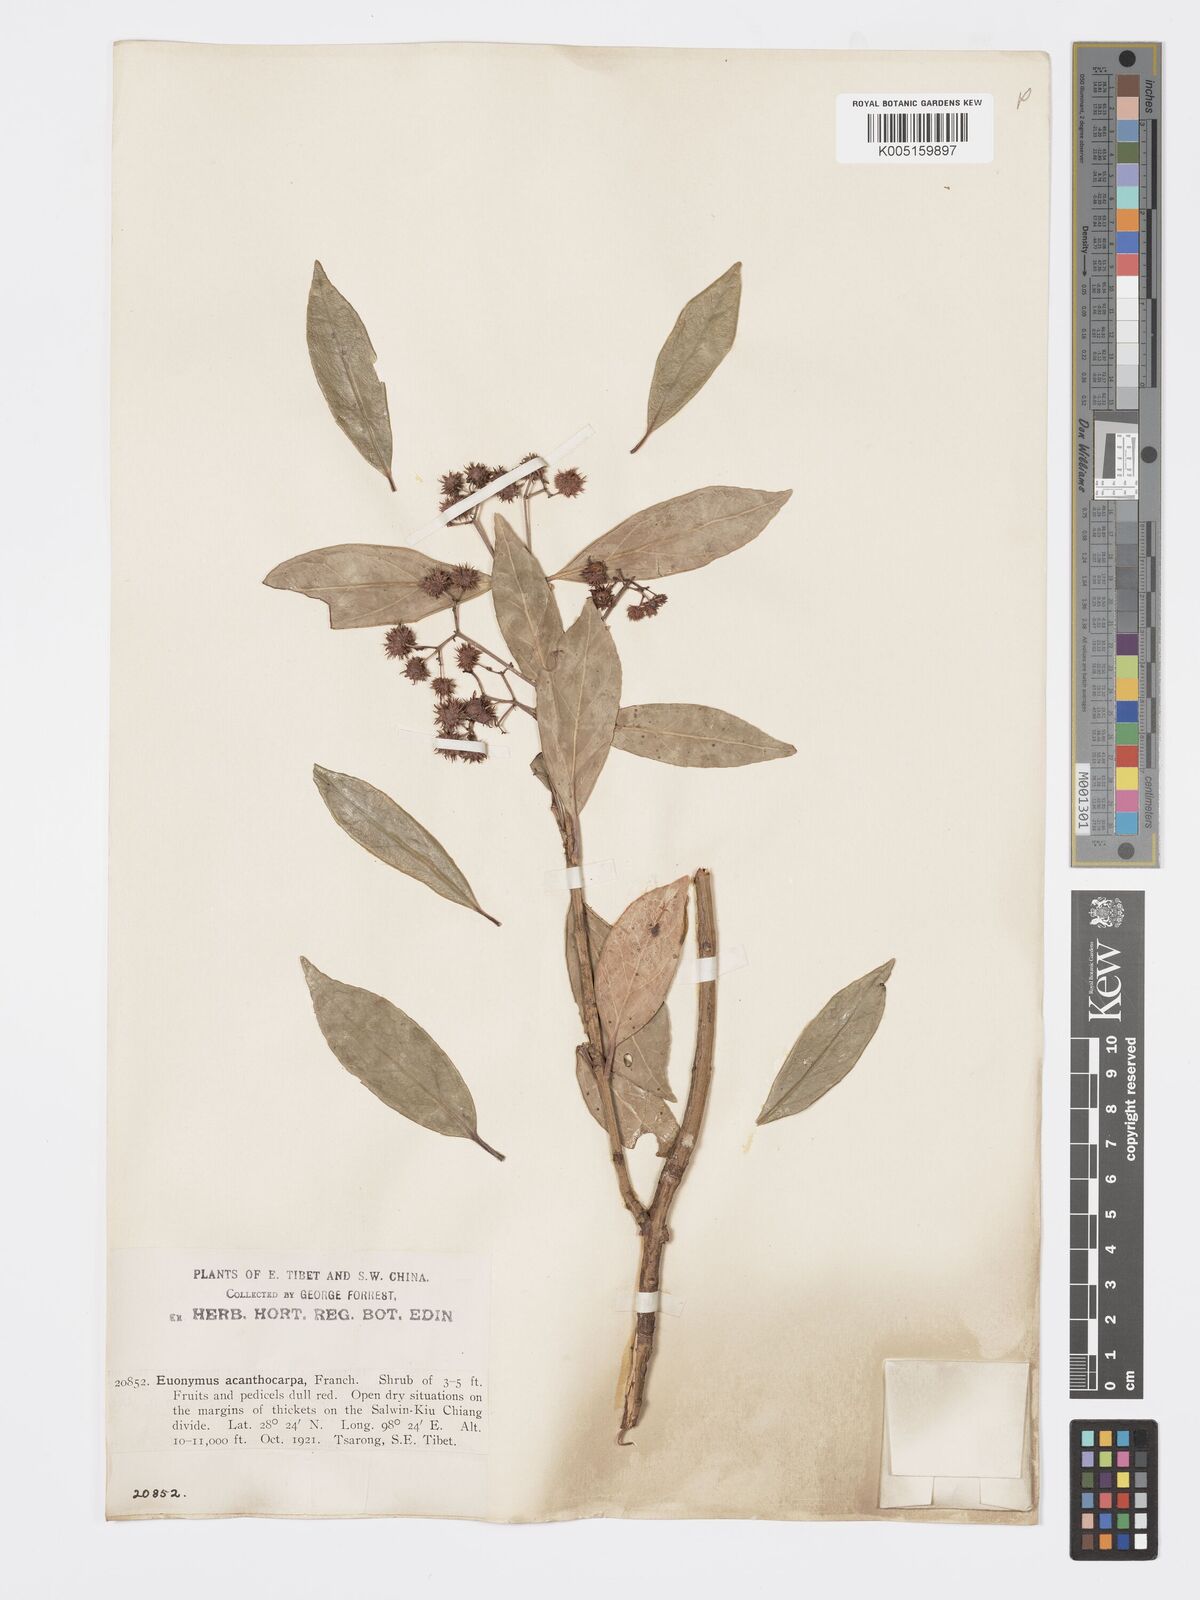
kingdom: Plantae
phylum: Tracheophyta
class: Magnoliopsida
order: Celastrales
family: Celastraceae
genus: Euonymus
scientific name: Euonymus acanthocarpus
